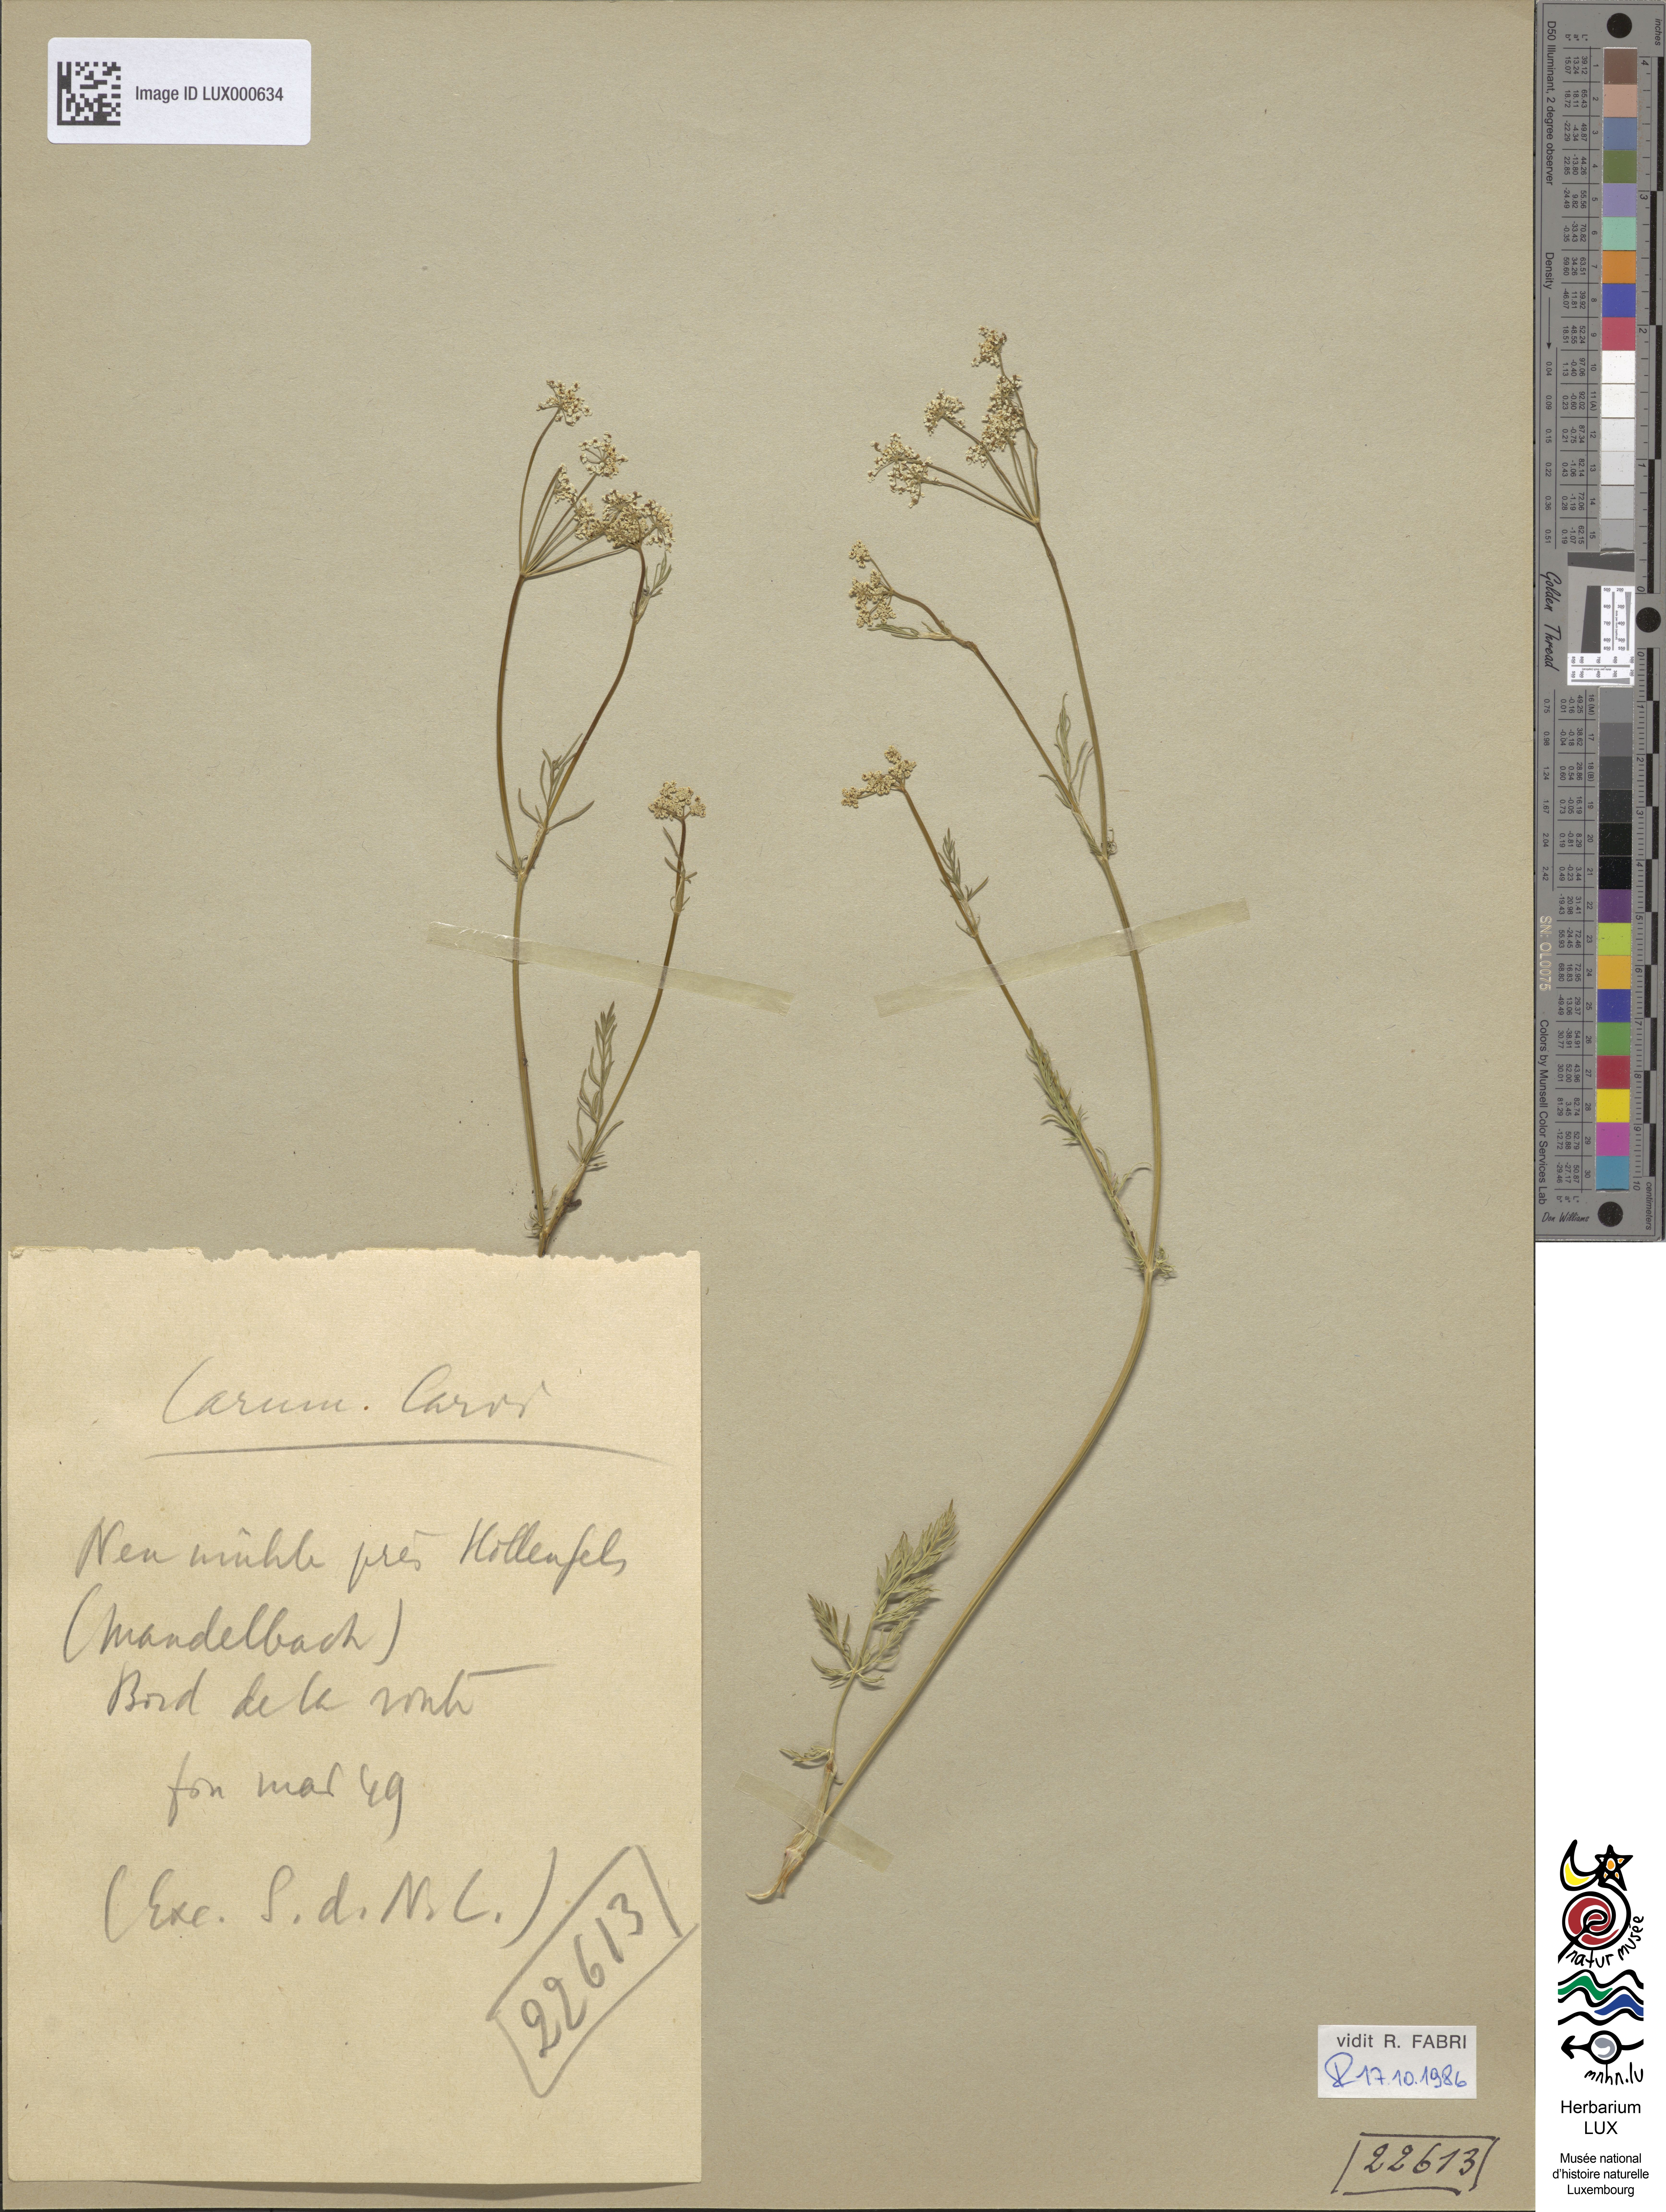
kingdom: Plantae
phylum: Tracheophyta
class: Magnoliopsida
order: Apiales
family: Apiaceae
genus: Carum
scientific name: Carum carvi
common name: Caraway
